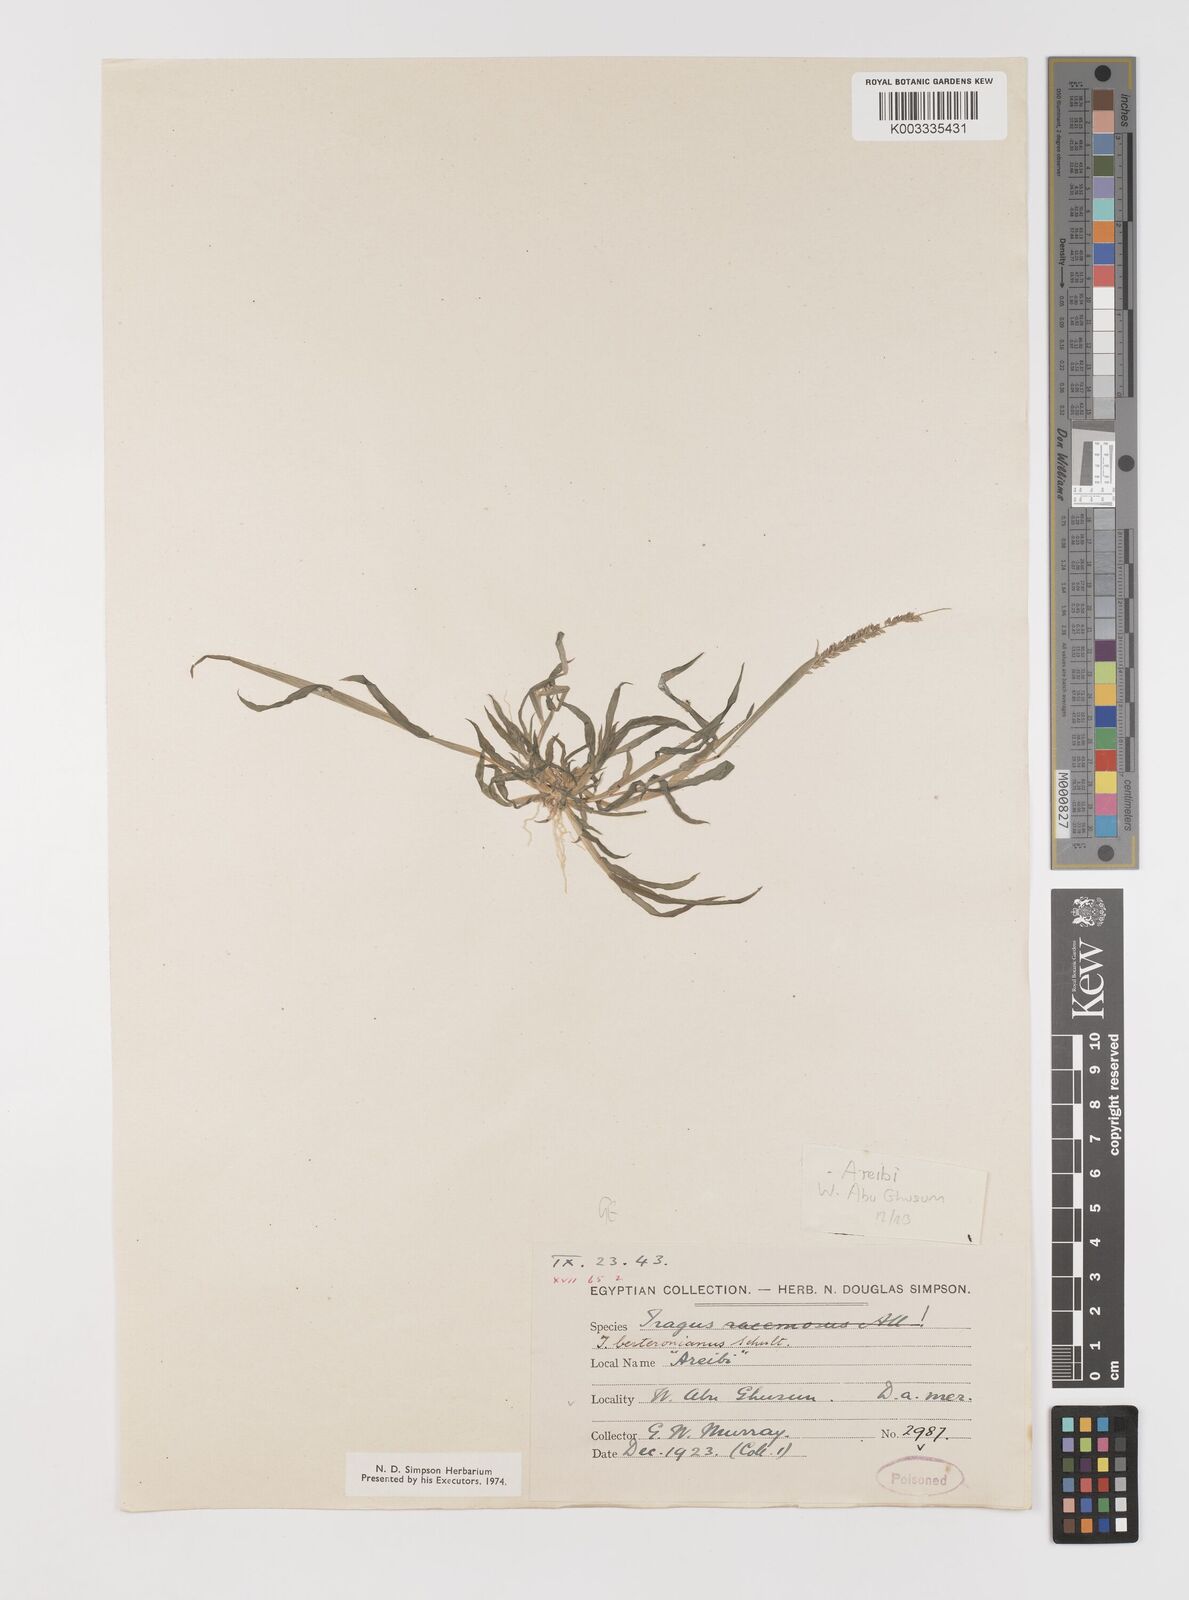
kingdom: Plantae
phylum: Tracheophyta
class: Liliopsida
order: Poales
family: Poaceae
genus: Tragus
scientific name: Tragus berteronianus
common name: African bur-grass
